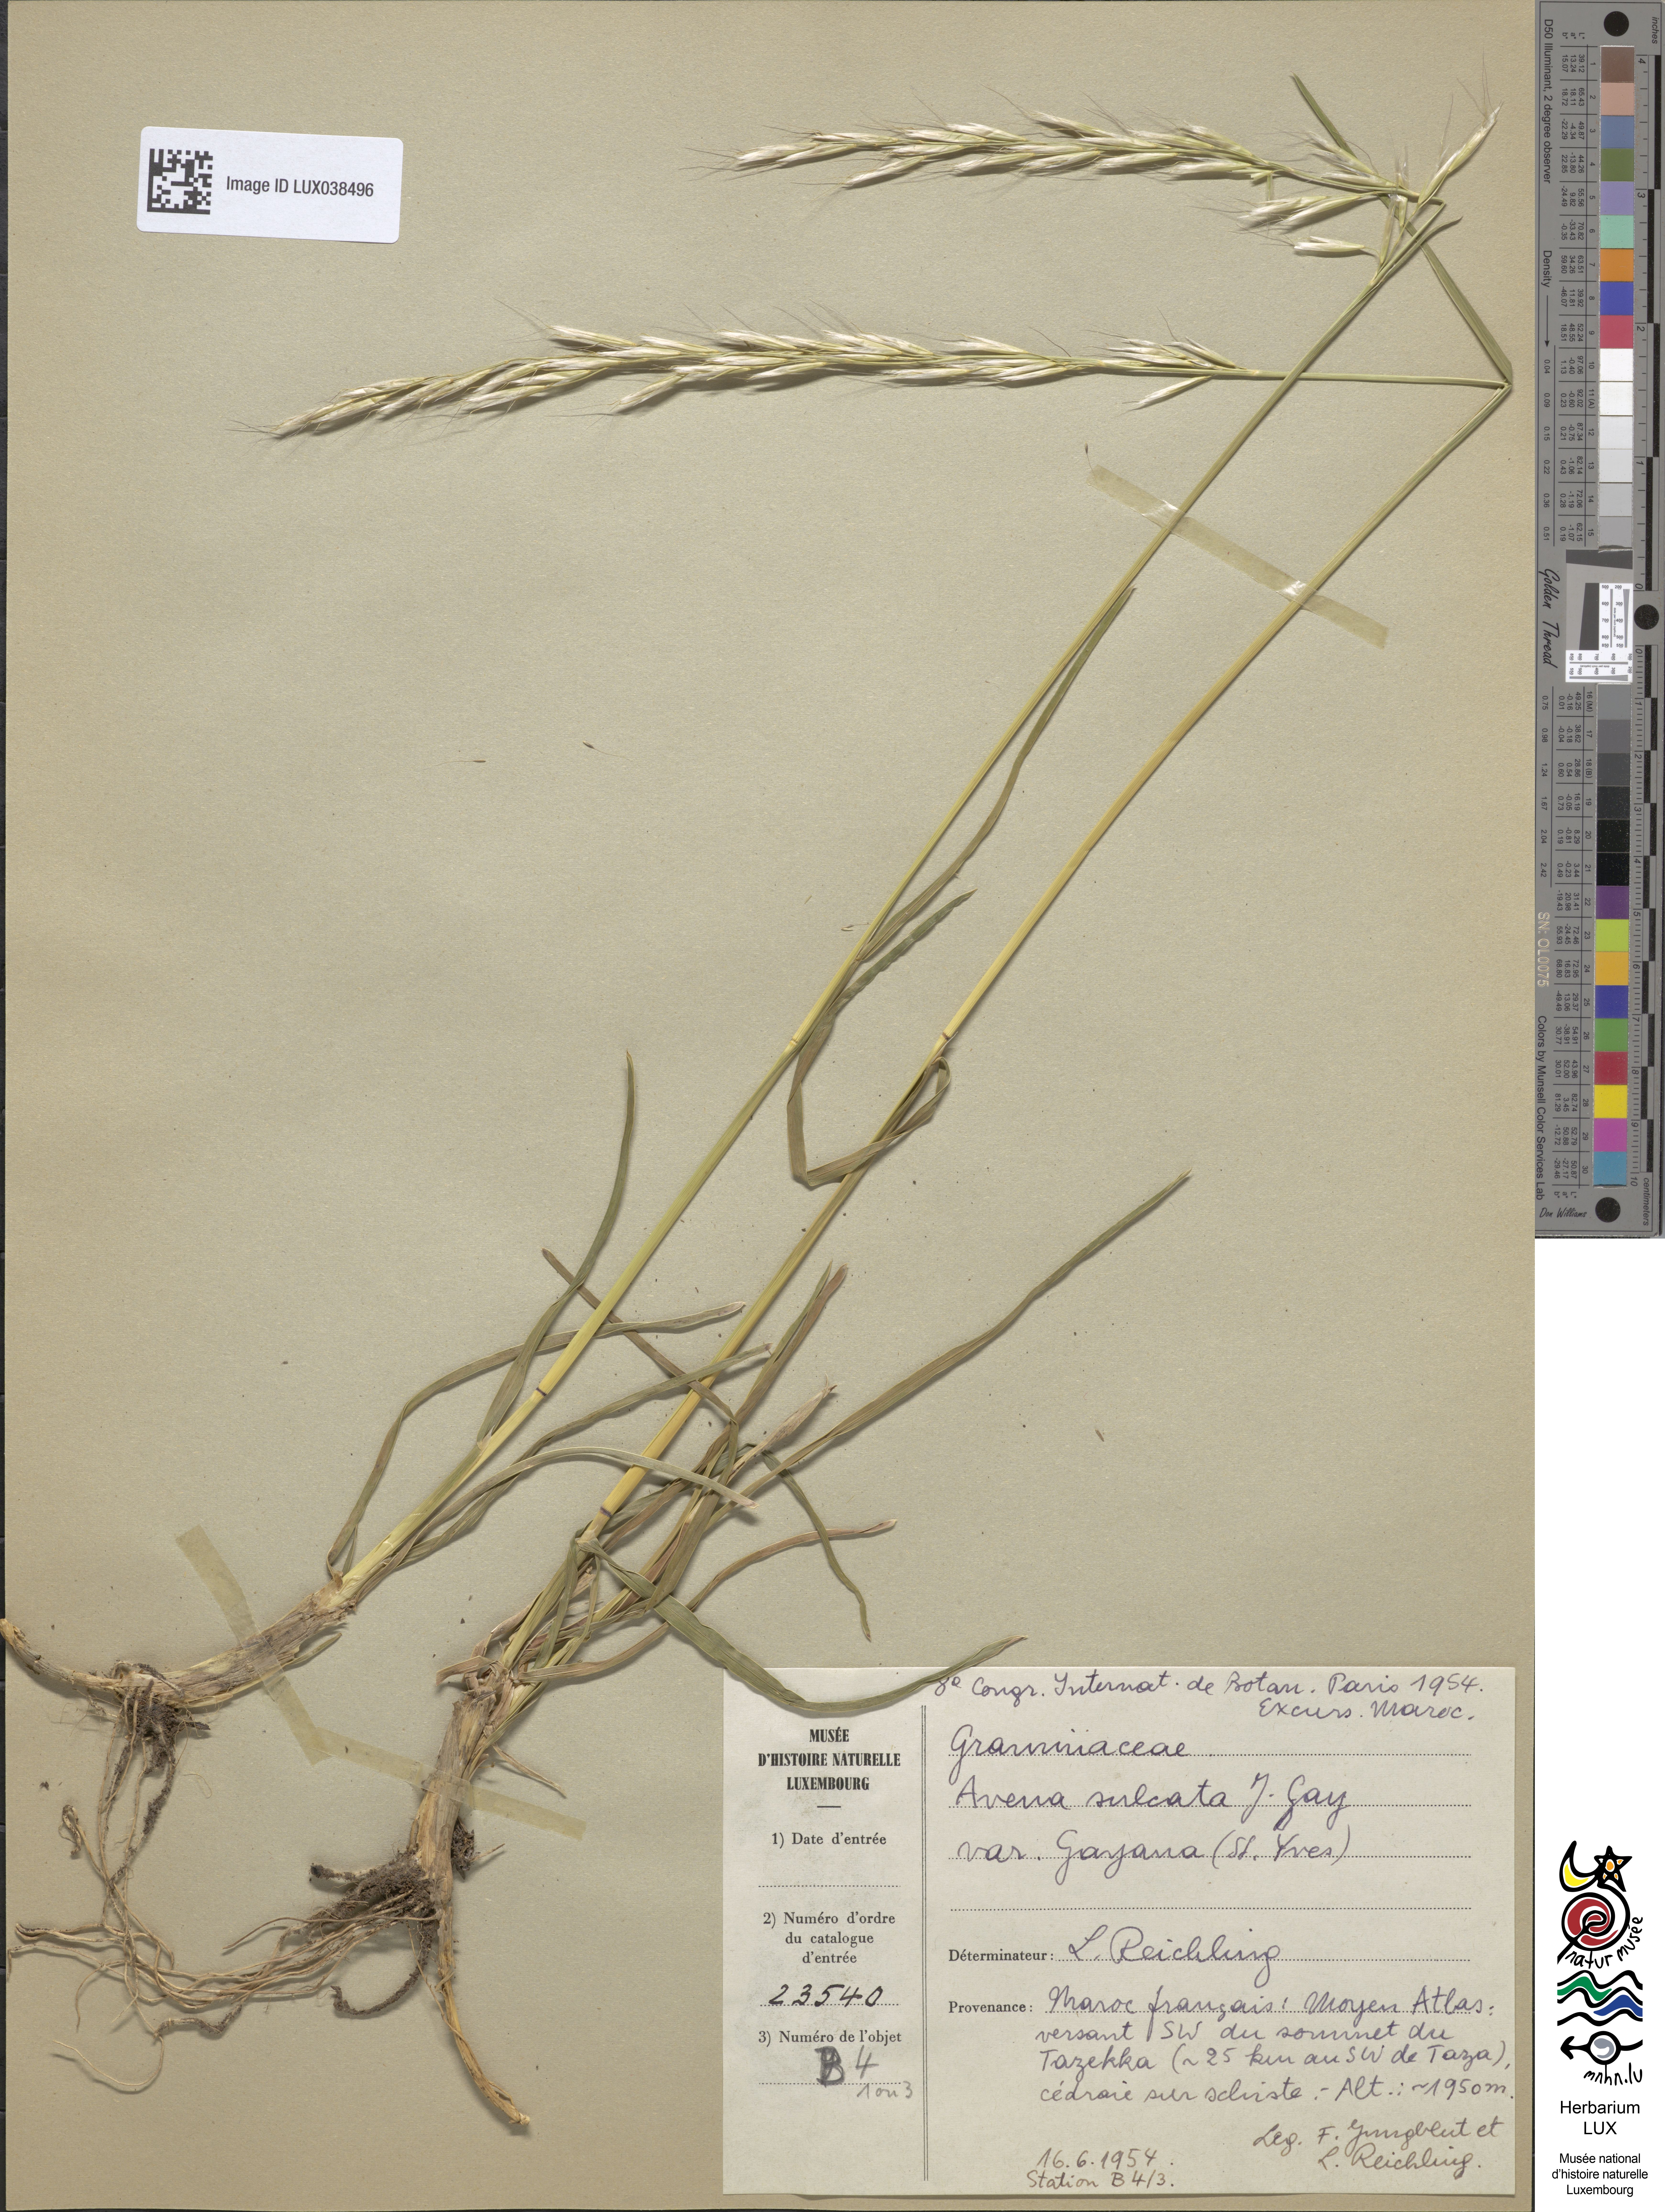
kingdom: Plantae
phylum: Tracheophyta
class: Liliopsida
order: Poales
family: Poaceae
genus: Helictochloa
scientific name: Helictochloa marginata
